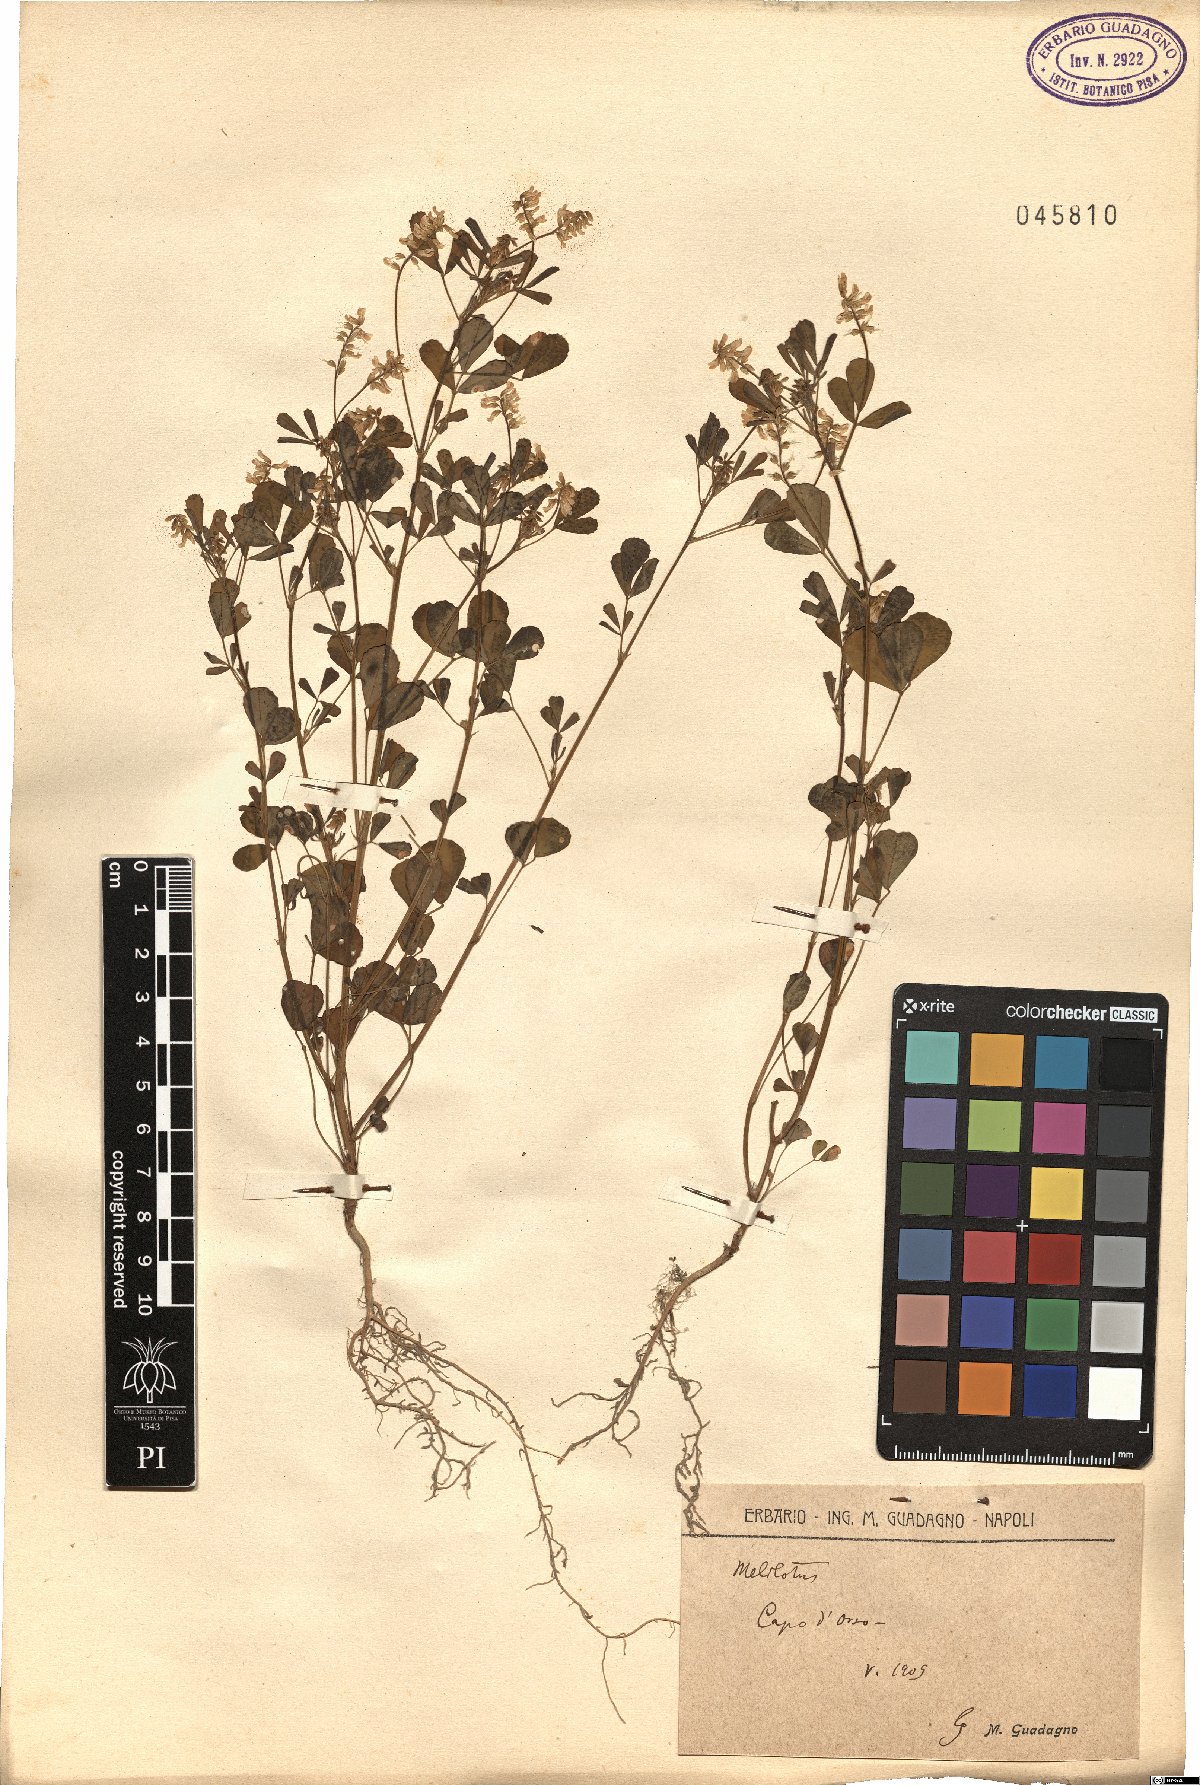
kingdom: Plantae
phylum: Tracheophyta
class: Magnoliopsida
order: Fabales
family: Fabaceae
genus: Melilotus
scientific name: Melilotus
